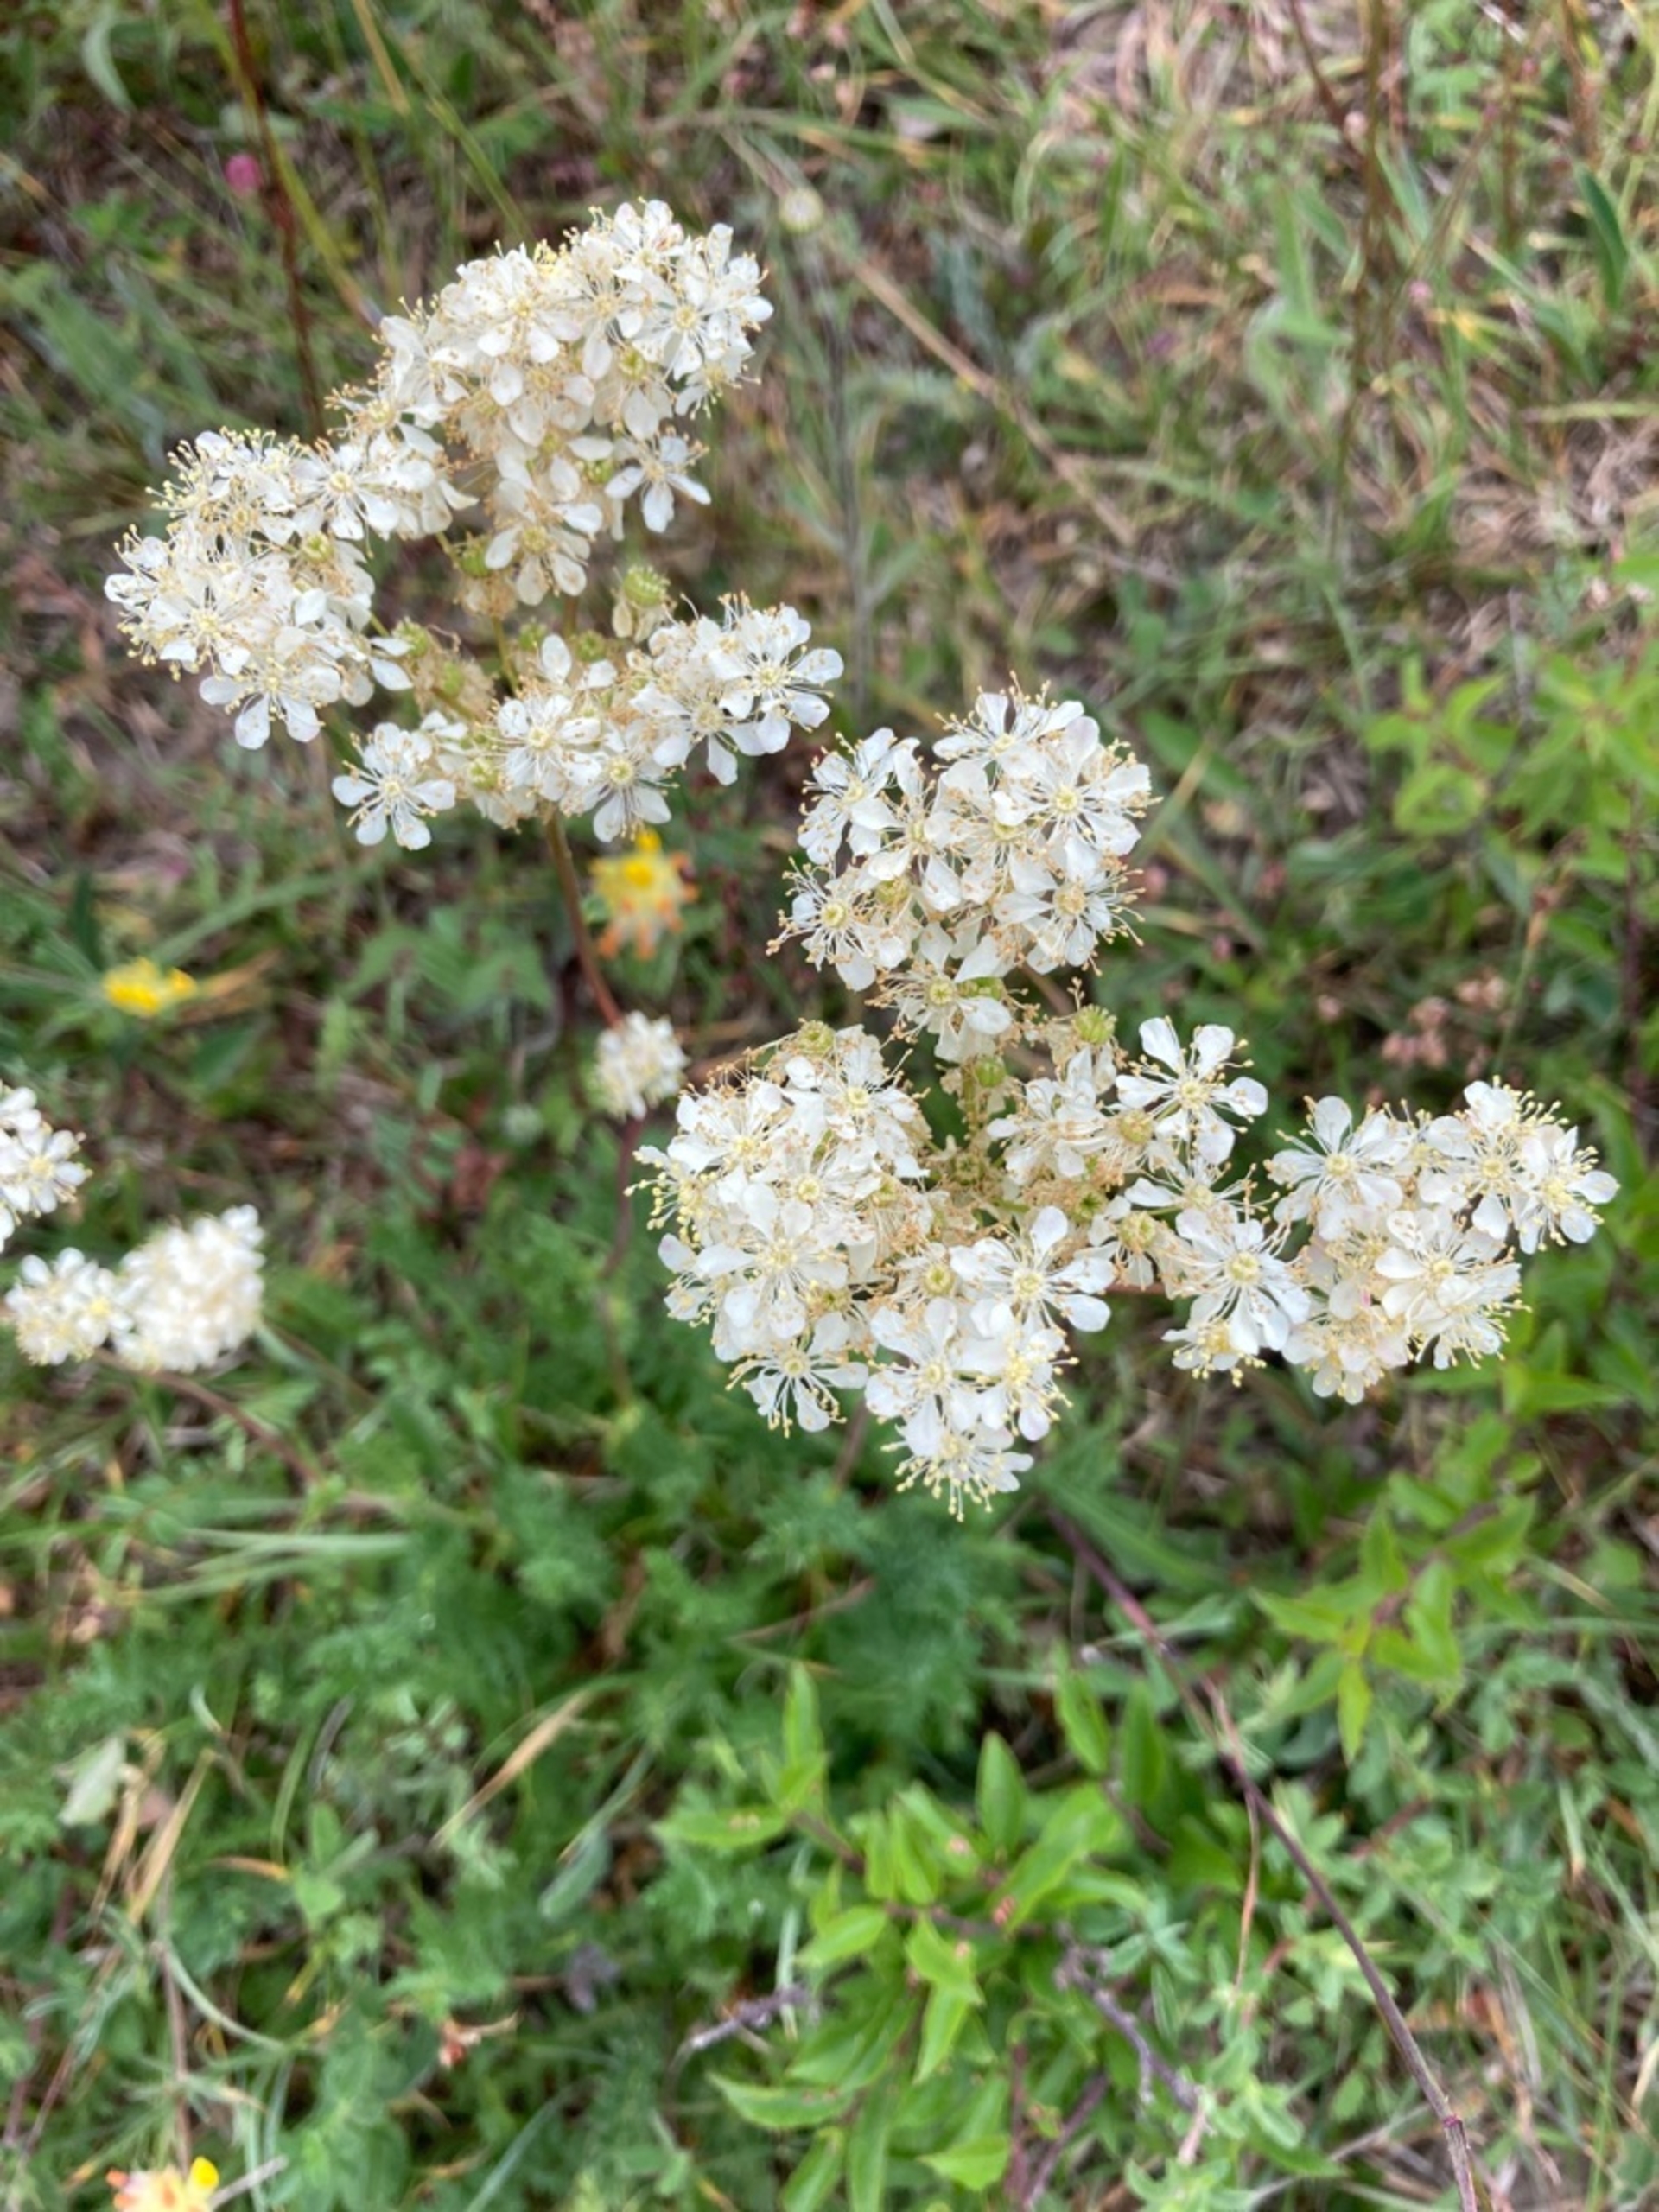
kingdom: Plantae
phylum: Tracheophyta
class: Magnoliopsida
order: Rosales
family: Rosaceae
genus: Filipendula
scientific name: Filipendula vulgaris
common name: Knoldet mjødurt
